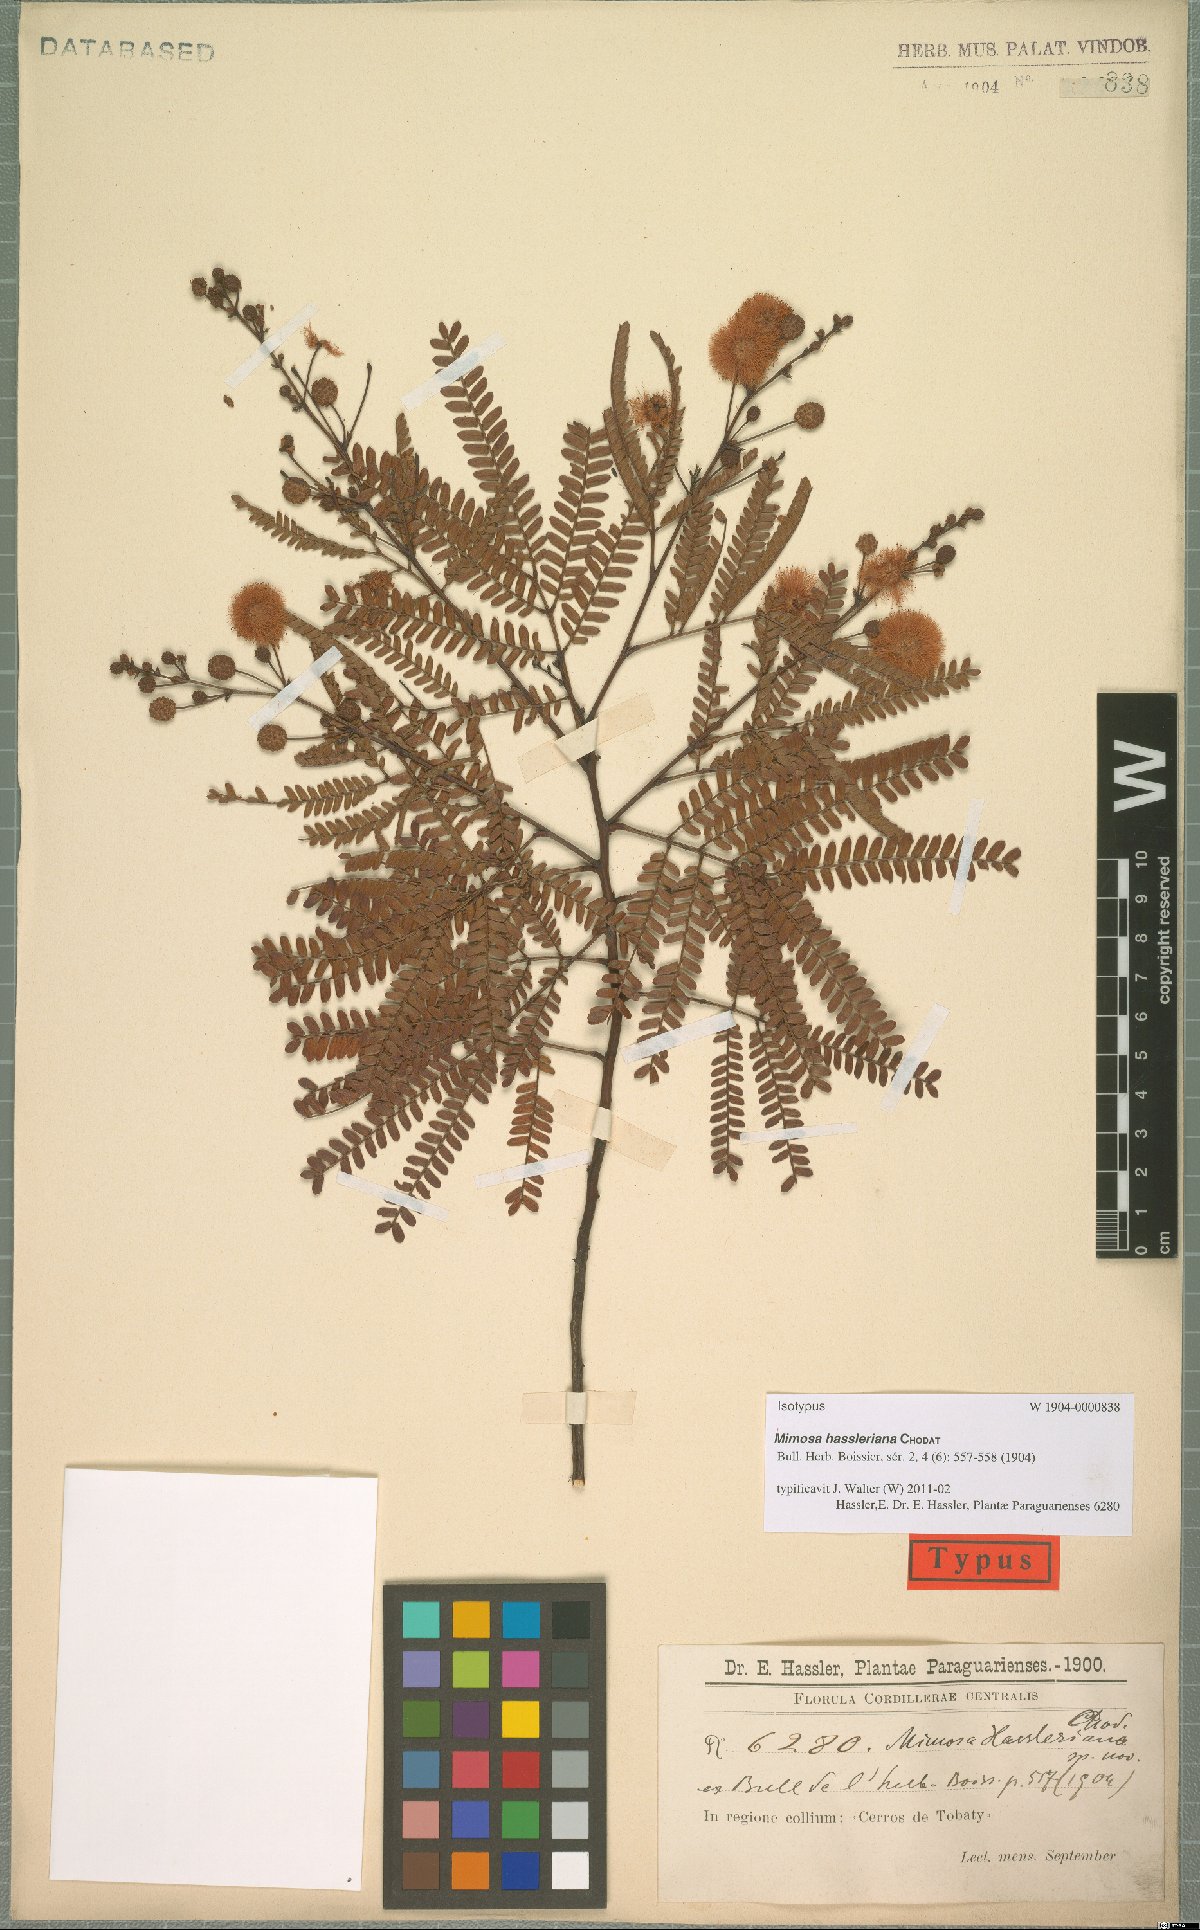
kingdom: Plantae
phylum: Tracheophyta
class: Magnoliopsida
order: Fabales
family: Fabaceae
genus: Mimosa
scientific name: Mimosa bifurca
